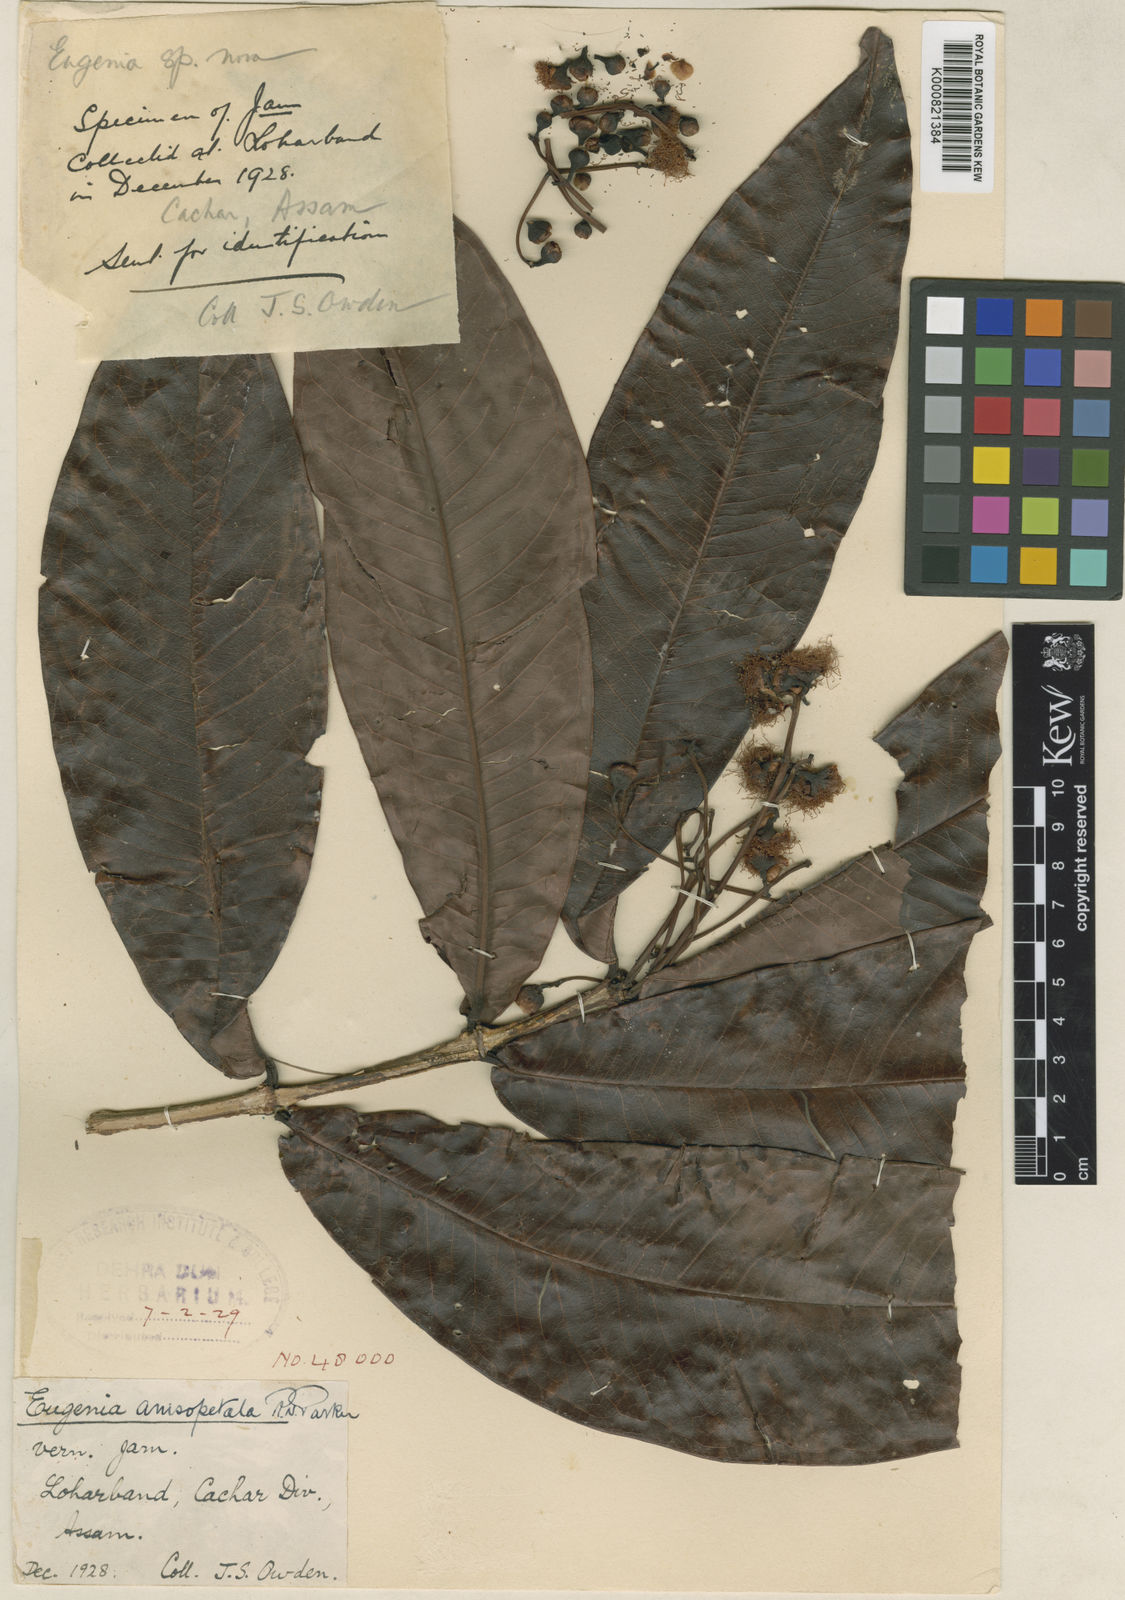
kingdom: Plantae
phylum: Tracheophyta
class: Magnoliopsida
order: Myrtales
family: Myrtaceae
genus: Syzygium
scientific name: Syzygium anisopetalum
